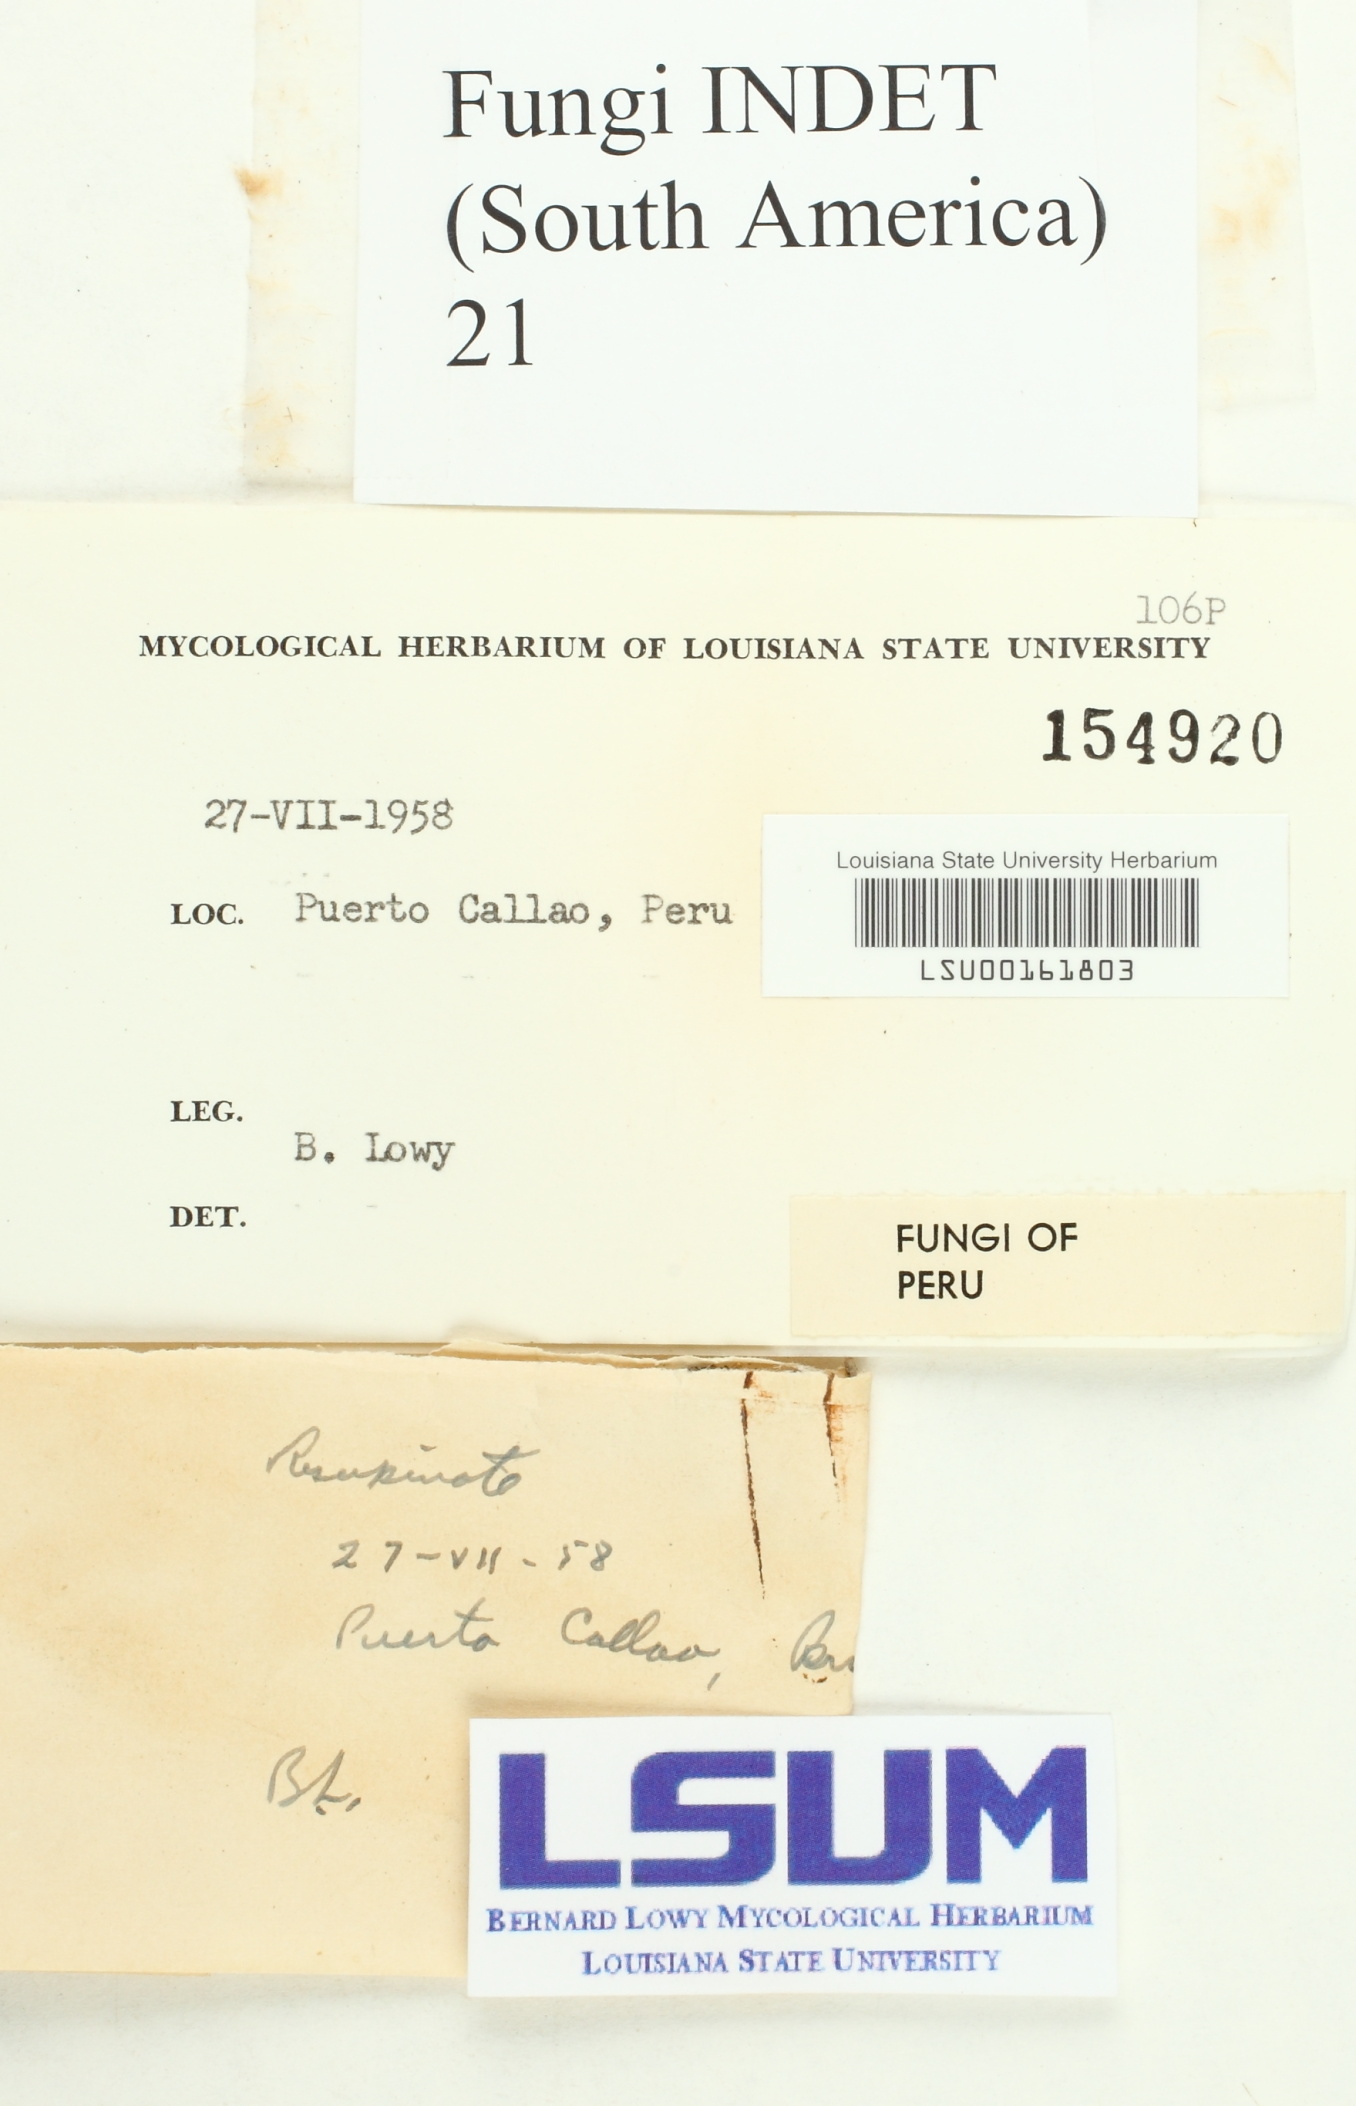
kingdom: Fungi
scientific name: Fungi
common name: Fungi
